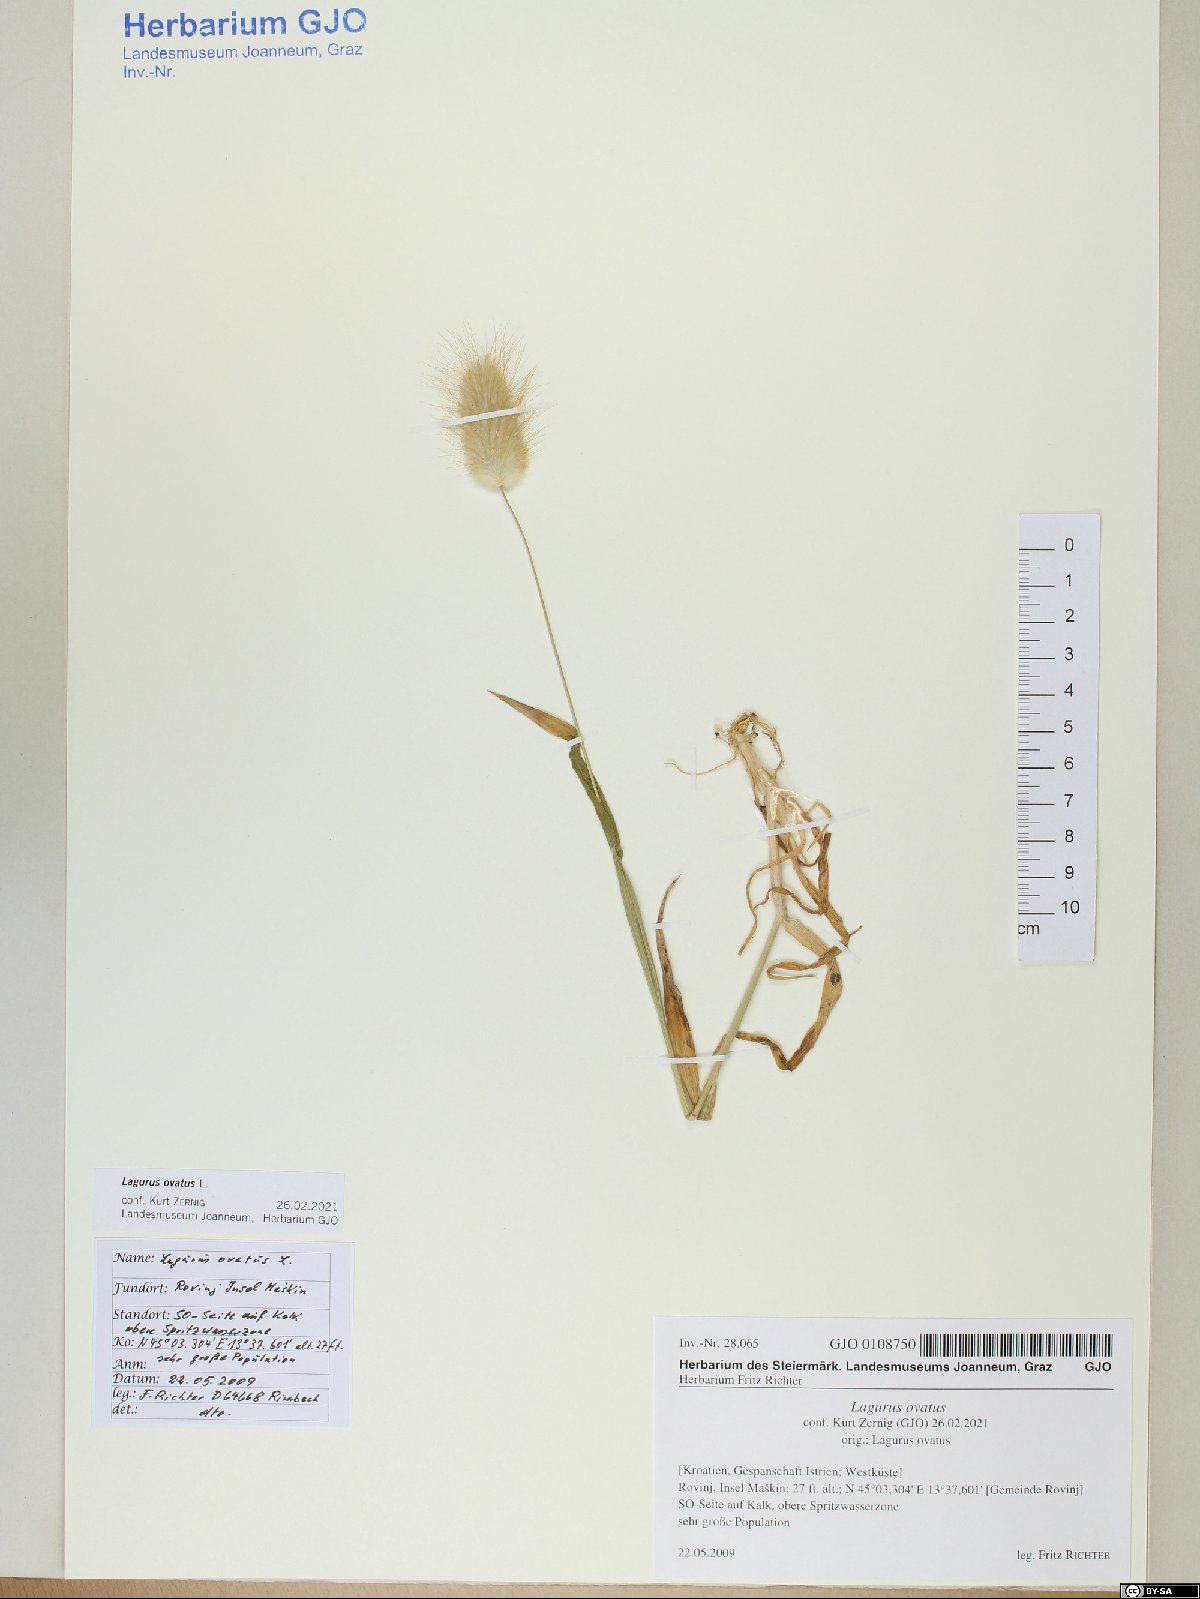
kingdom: Plantae
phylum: Tracheophyta
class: Liliopsida
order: Poales
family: Poaceae
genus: Lagurus
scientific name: Lagurus ovatus
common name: Hare's-tail
